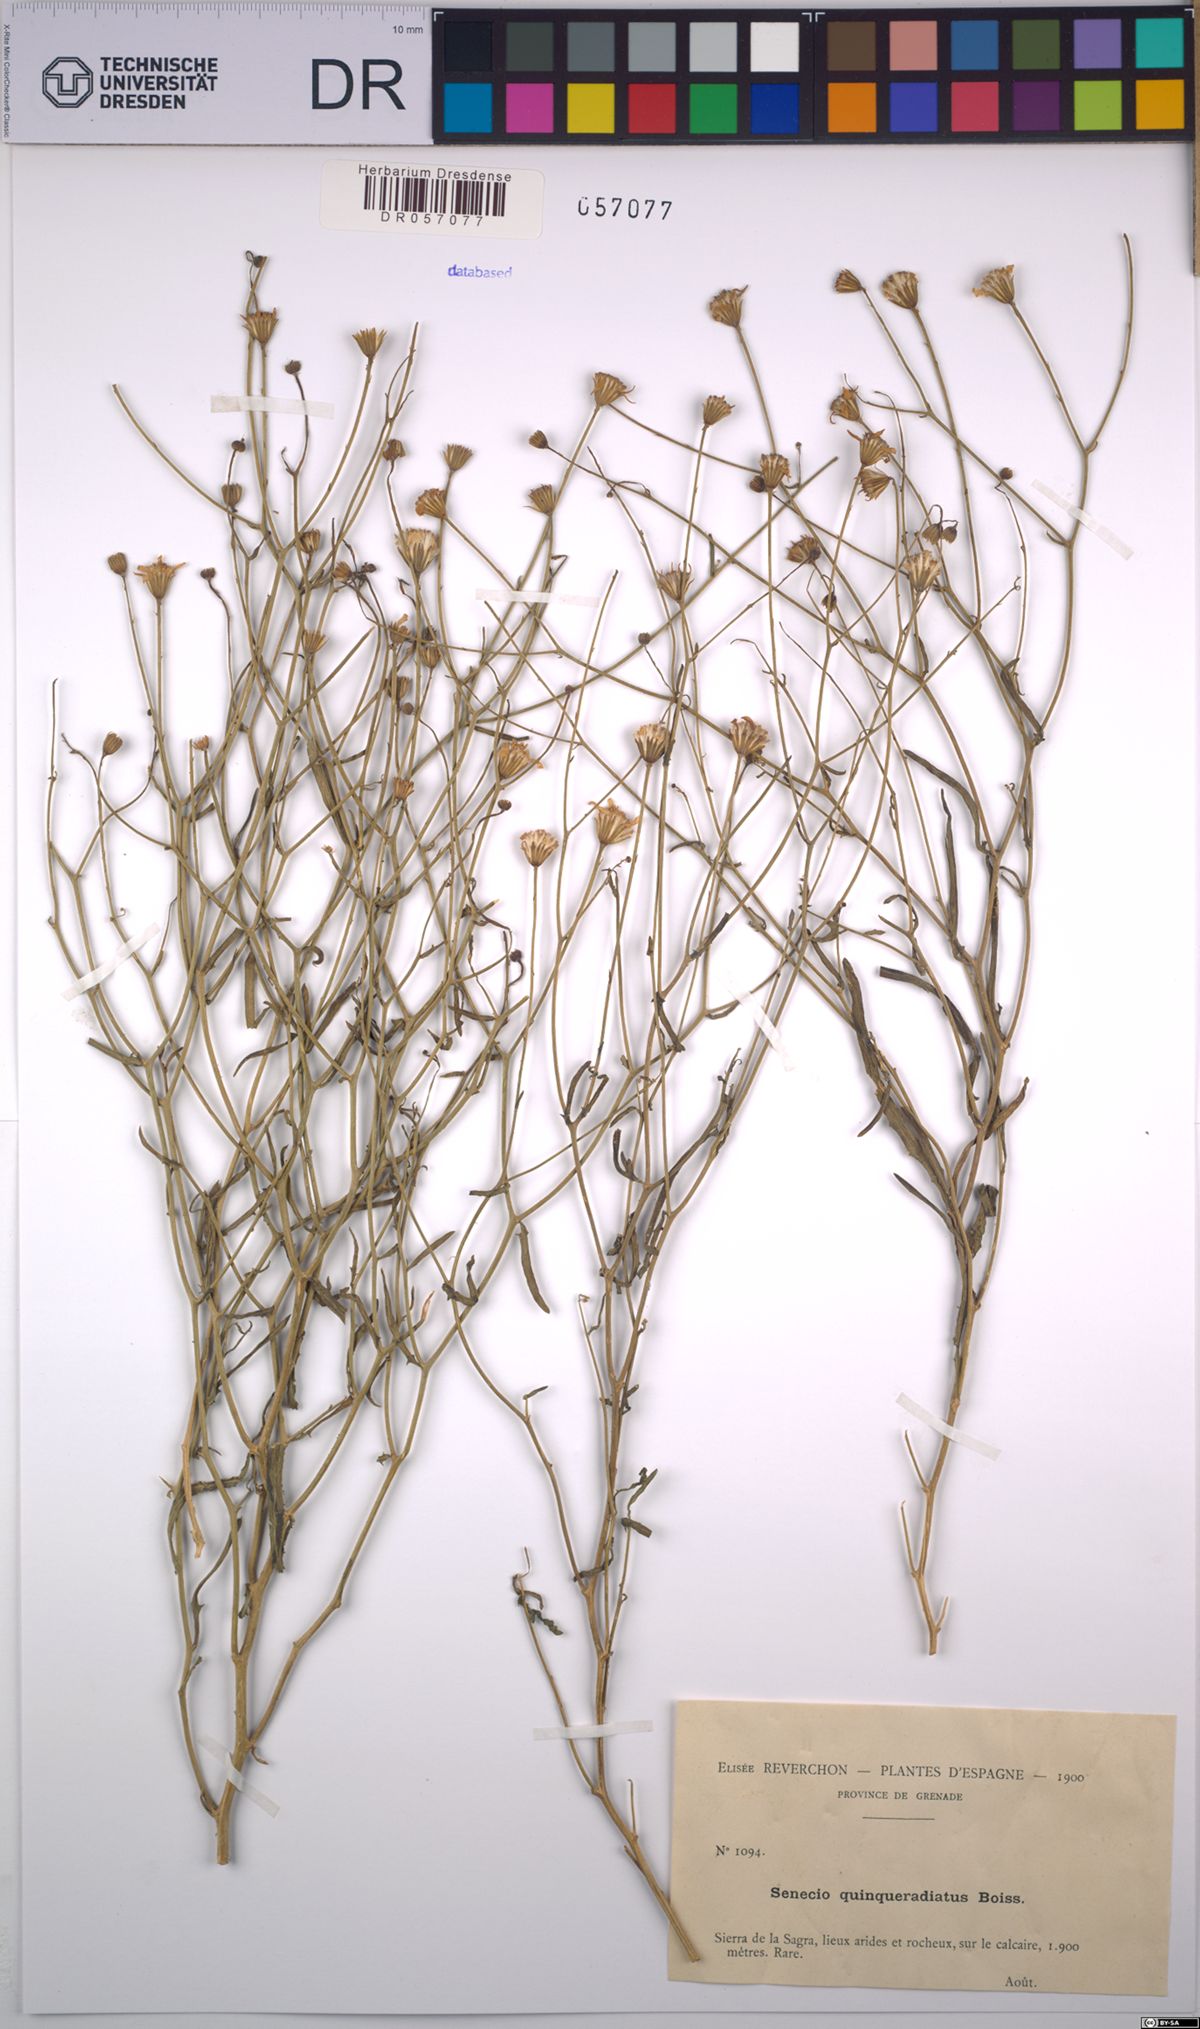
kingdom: Plantae
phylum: Tracheophyta
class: Magnoliopsida
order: Asterales
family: Asteraceae
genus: Senecio
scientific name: Senecio quinqueradiatus
